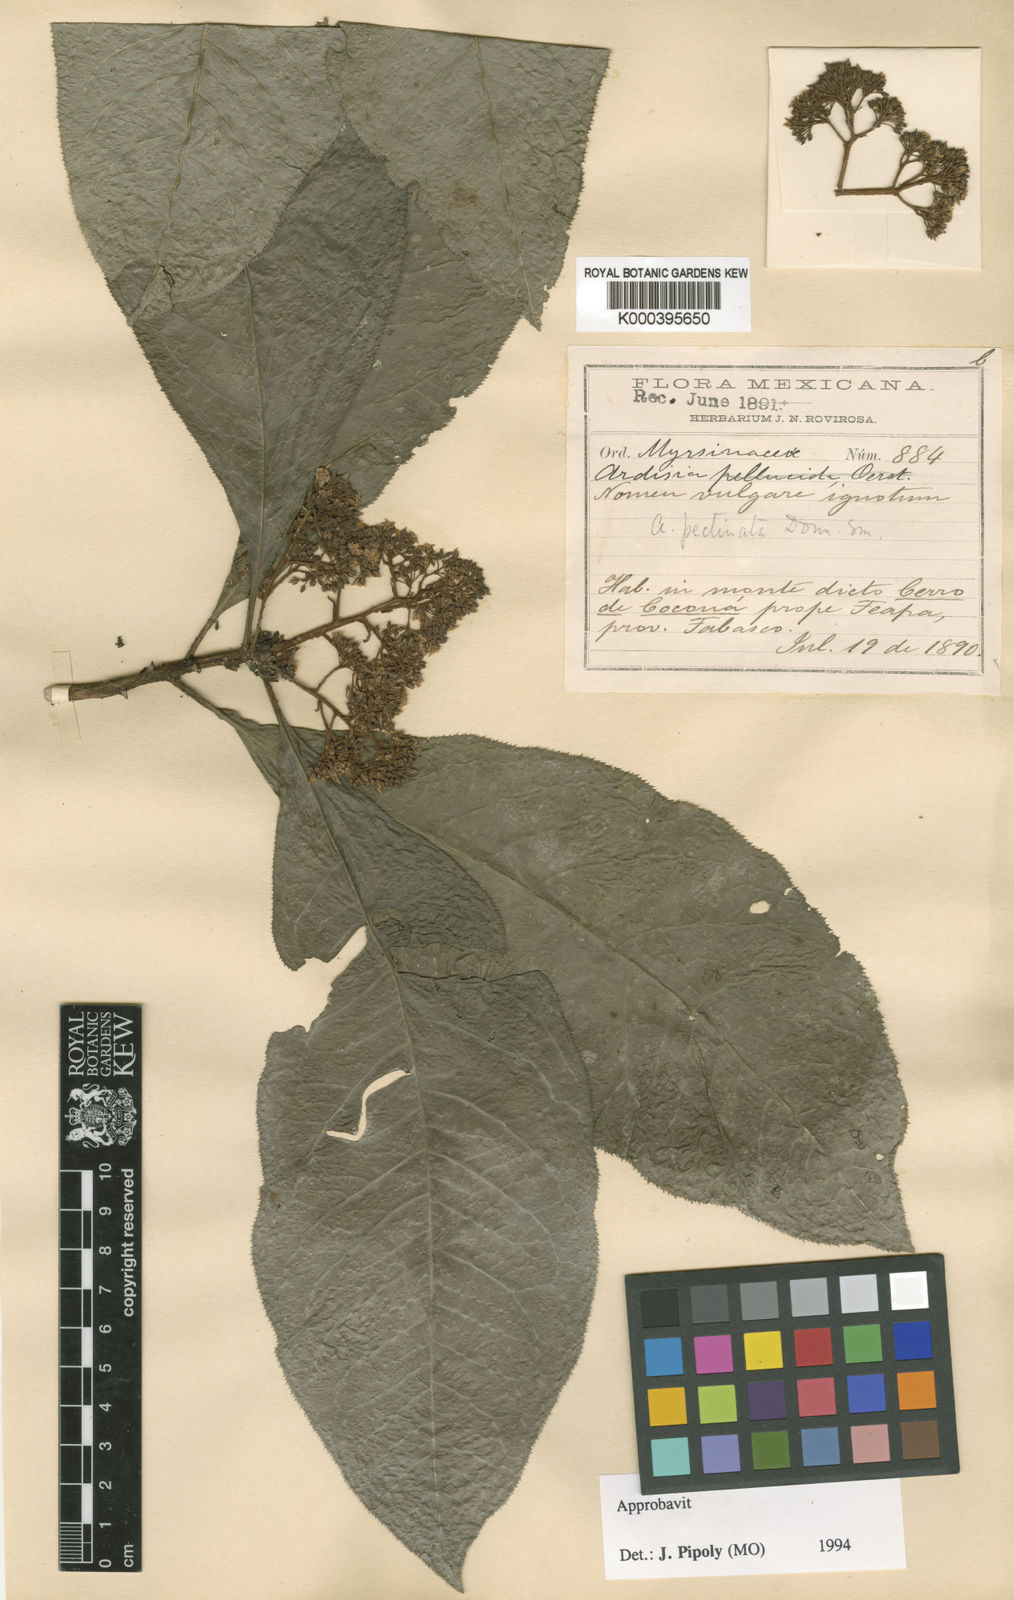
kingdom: Plantae
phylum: Tracheophyta
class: Magnoliopsida
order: Ericales
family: Primulaceae
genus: Ardisia
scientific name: Ardisia pellucida
